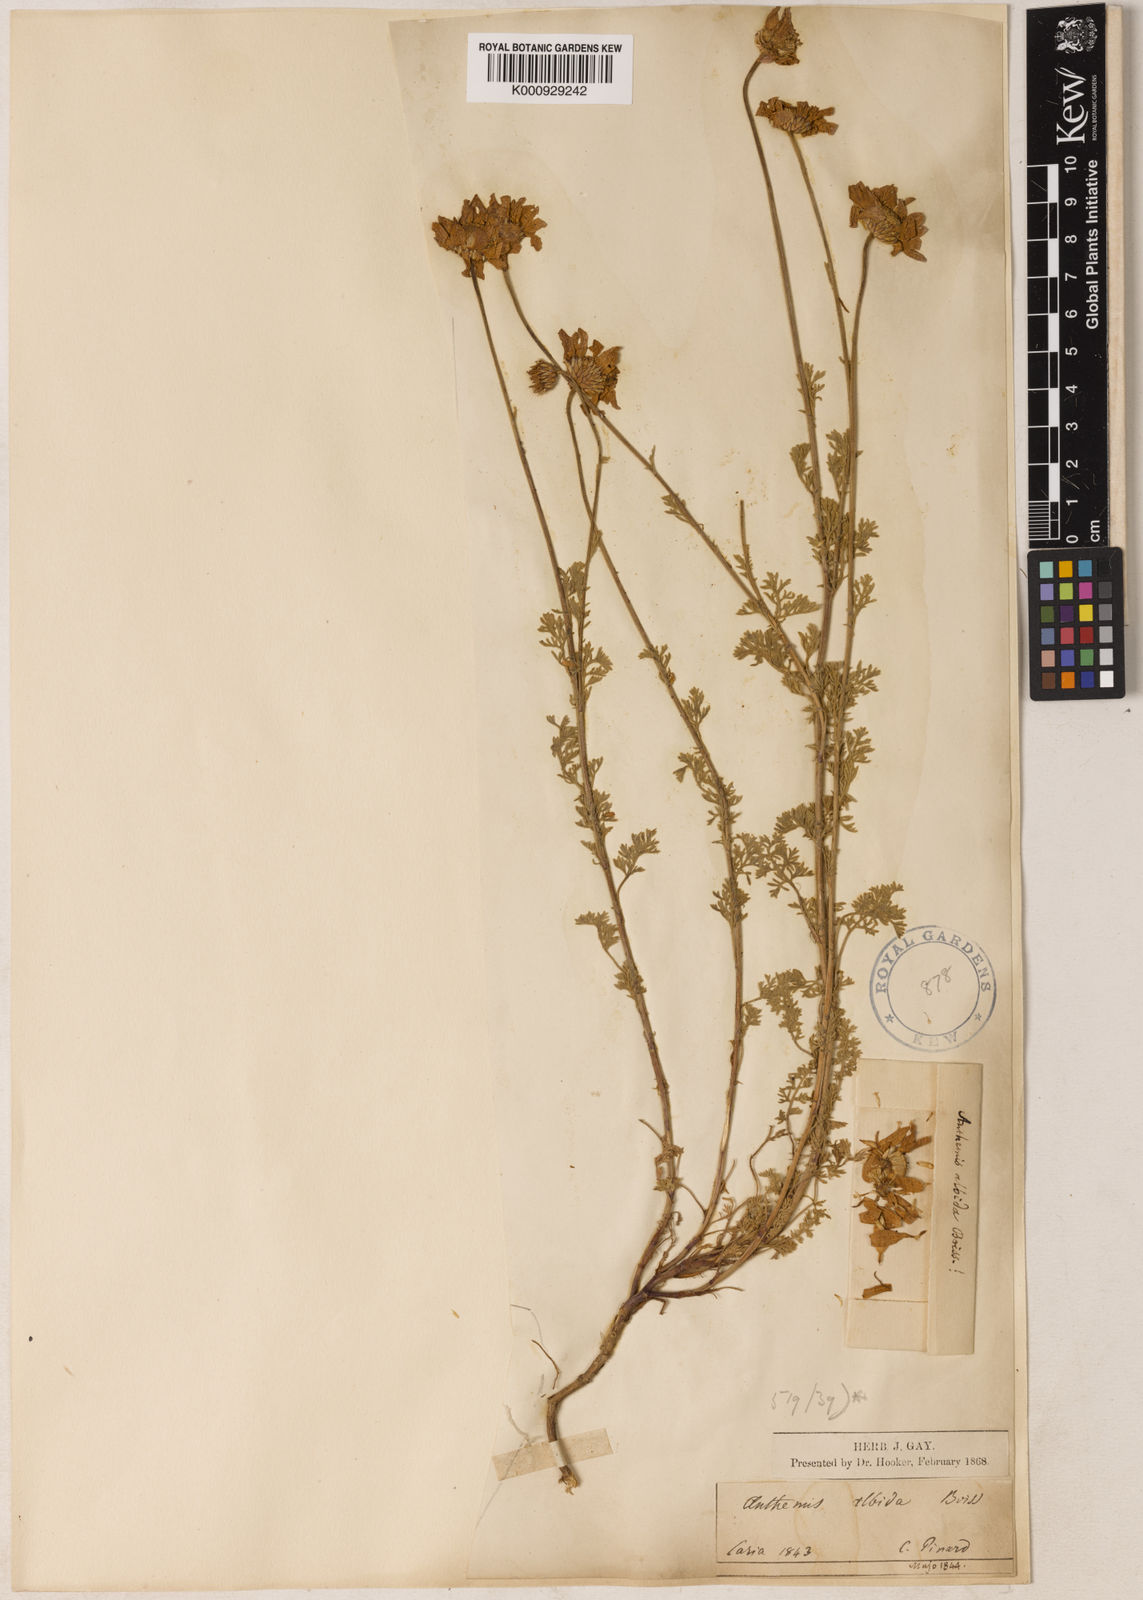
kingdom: Plantae
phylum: Tracheophyta
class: Magnoliopsida
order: Asterales
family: Asteraceae
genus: Anthemis
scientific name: Anthemis cretica
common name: Mountain dog-daisy
